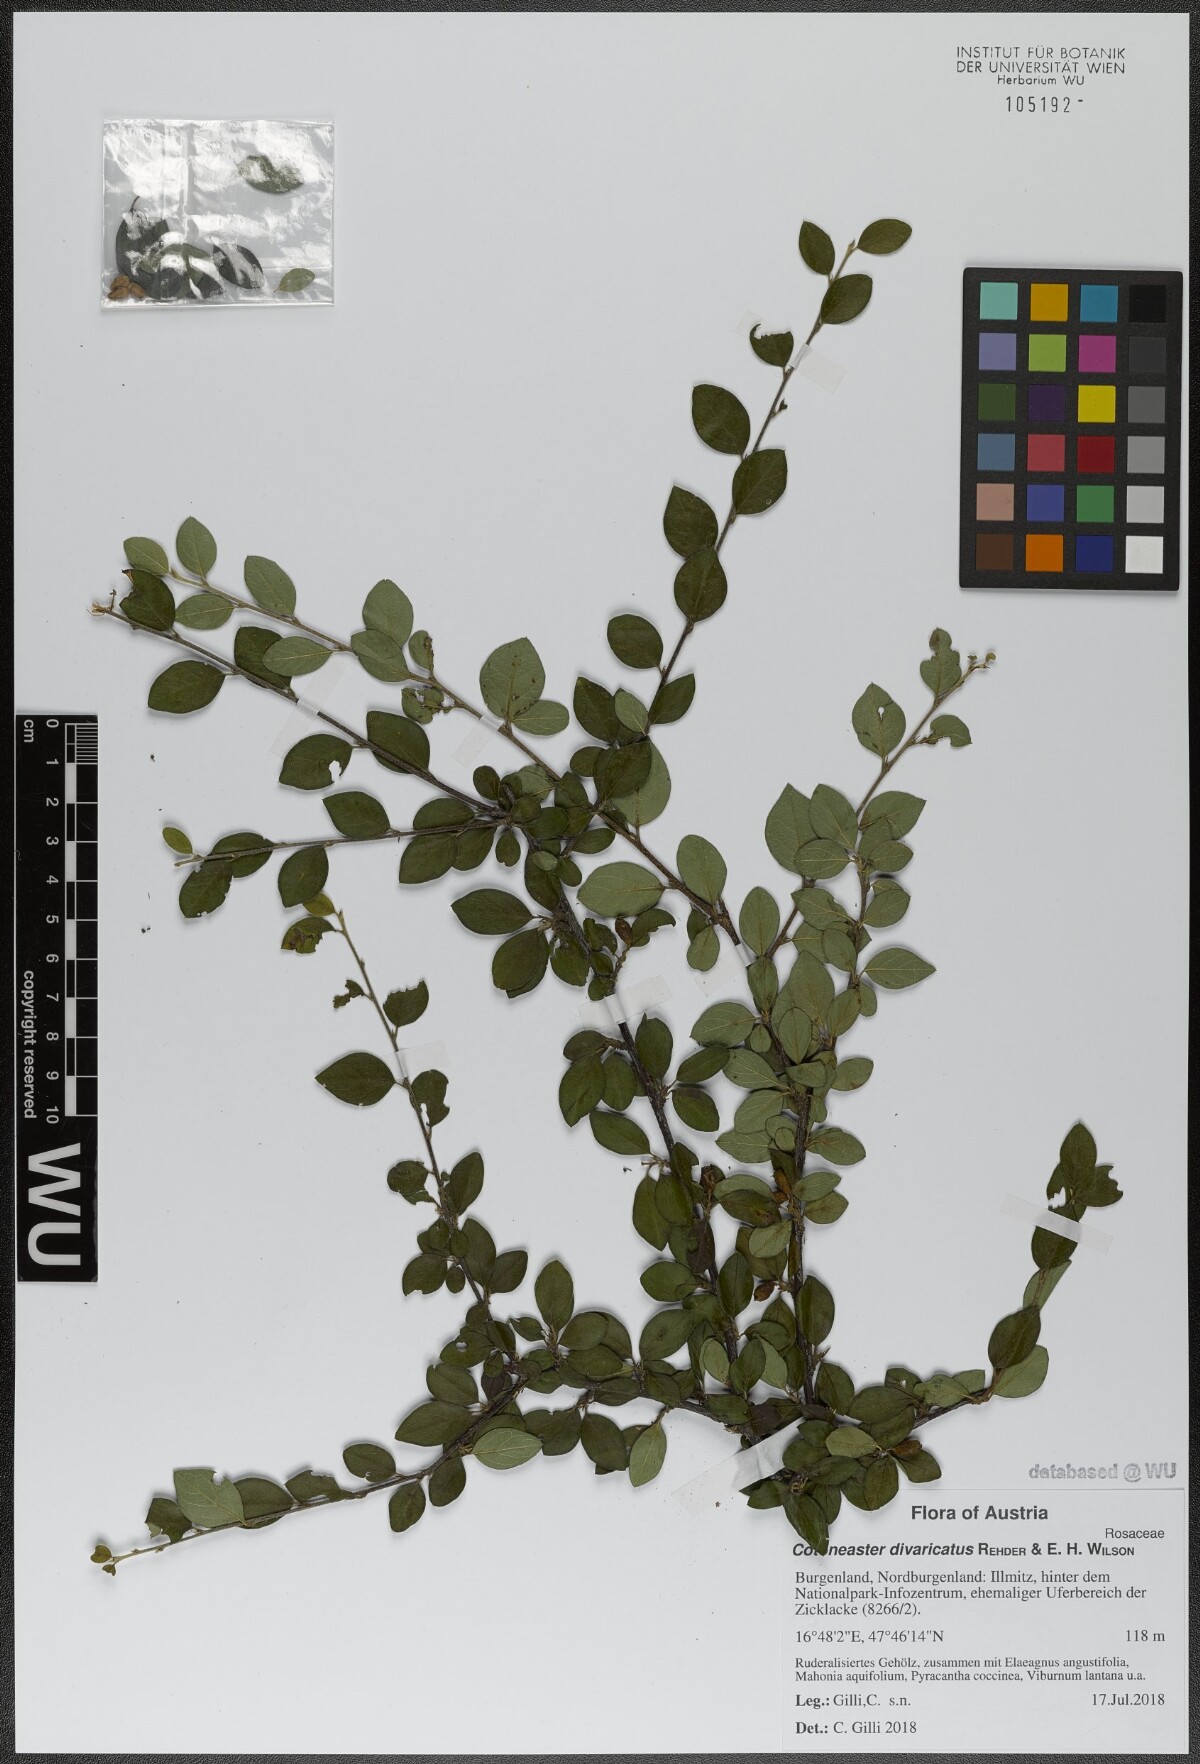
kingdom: Plantae
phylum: Tracheophyta
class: Magnoliopsida
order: Rosales
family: Rosaceae
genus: Cotoneaster
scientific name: Cotoneaster divaricatus
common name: Spreading cotoneaster
